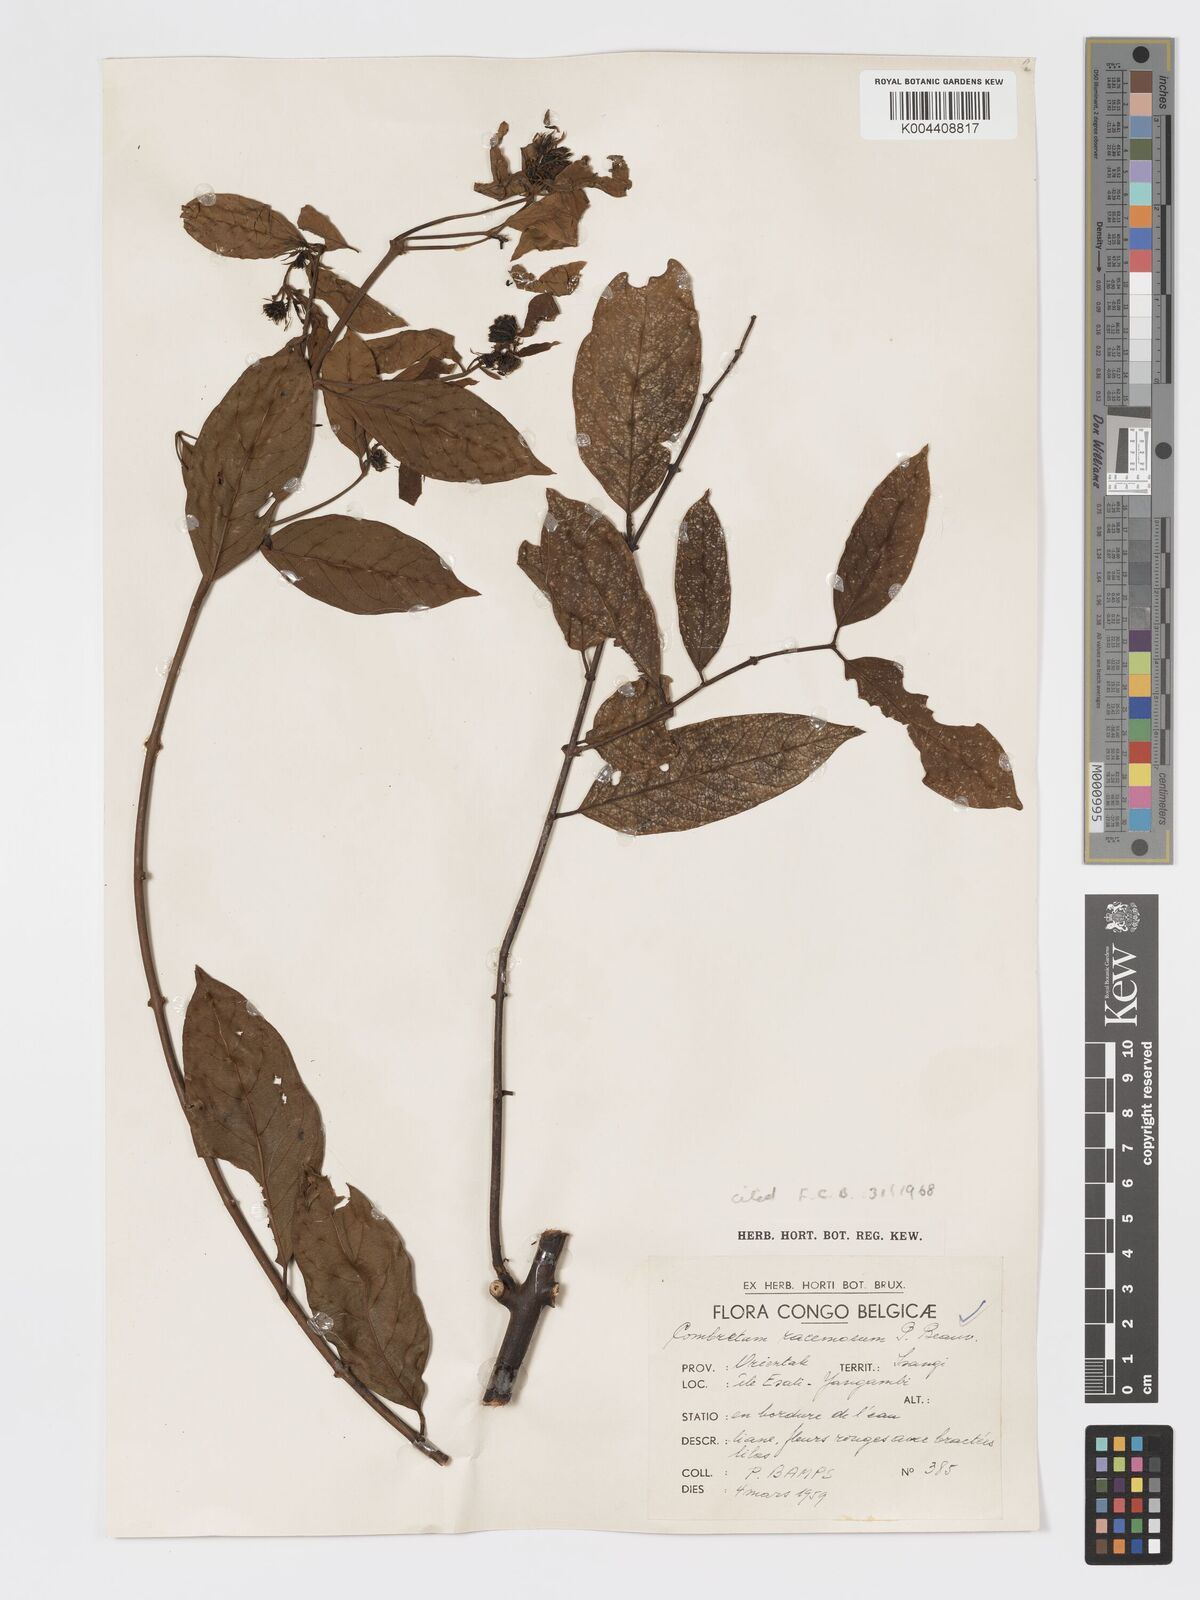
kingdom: Plantae
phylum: Tracheophyta
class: Magnoliopsida
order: Myrtales
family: Combretaceae
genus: Combretum
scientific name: Combretum racemosum
